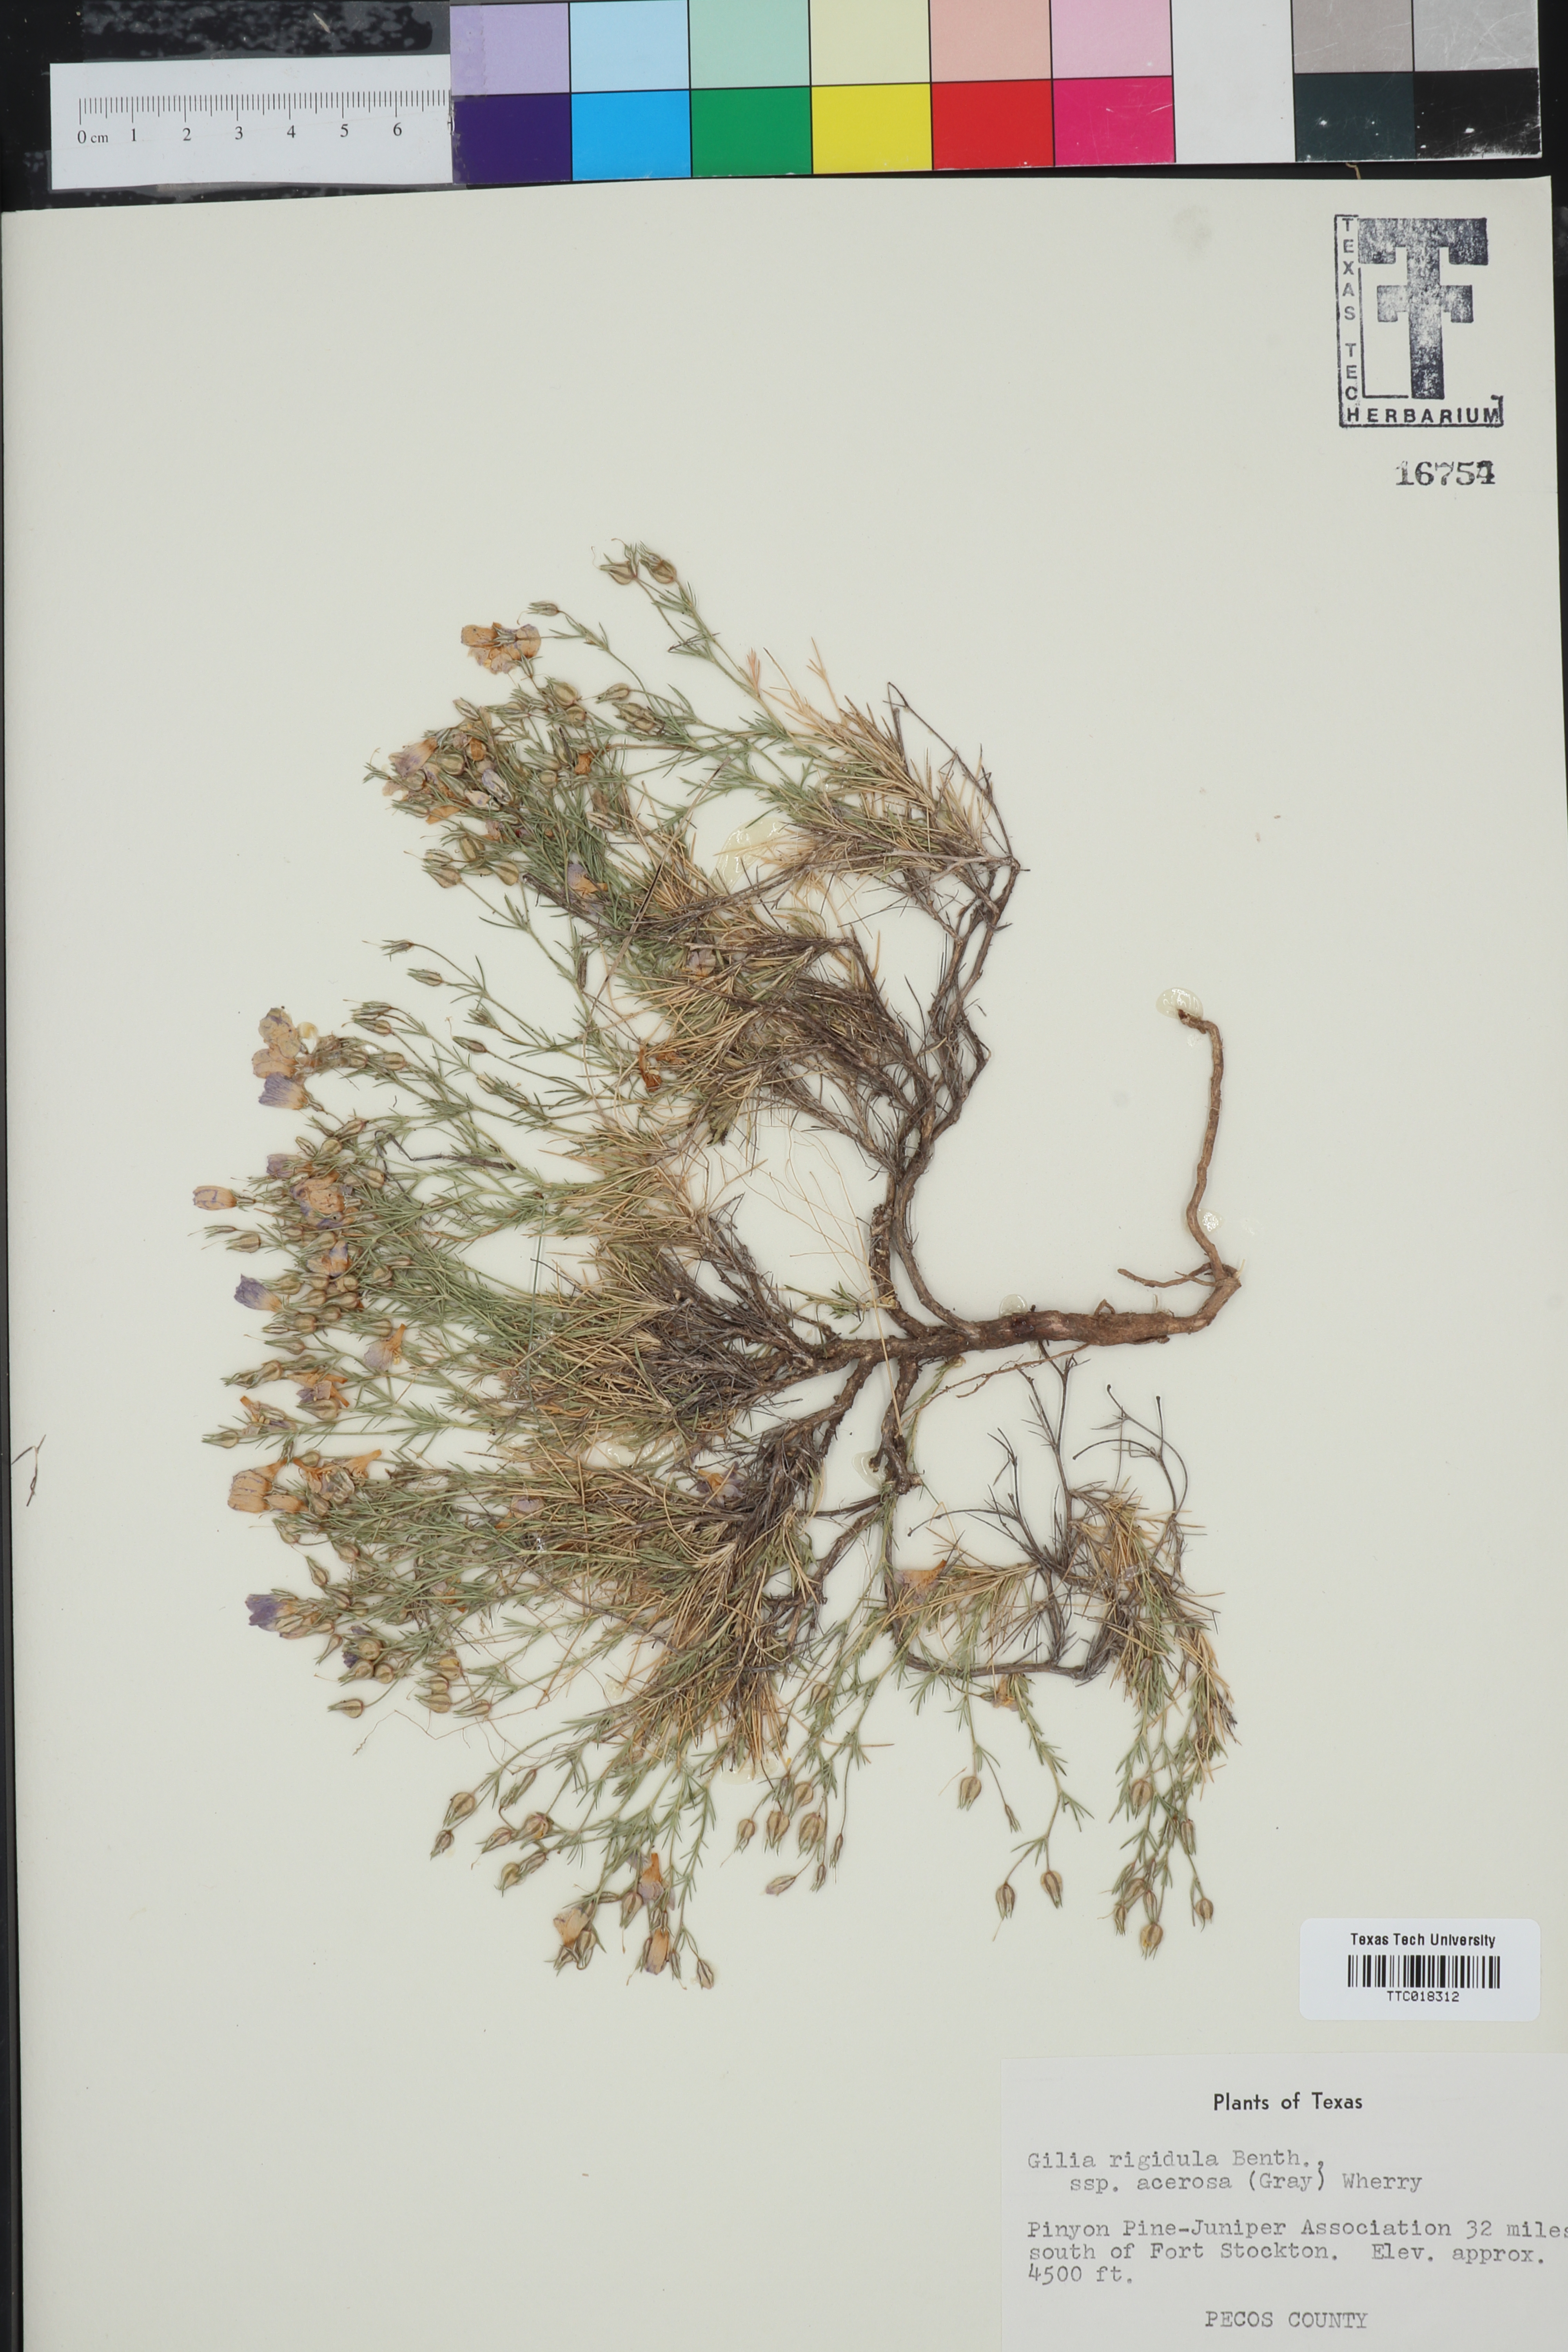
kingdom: Plantae
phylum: Tracheophyta
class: Magnoliopsida
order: Ericales
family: Polemoniaceae
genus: Giliastrum
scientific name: Giliastrum acerosum
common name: Bluebowls
